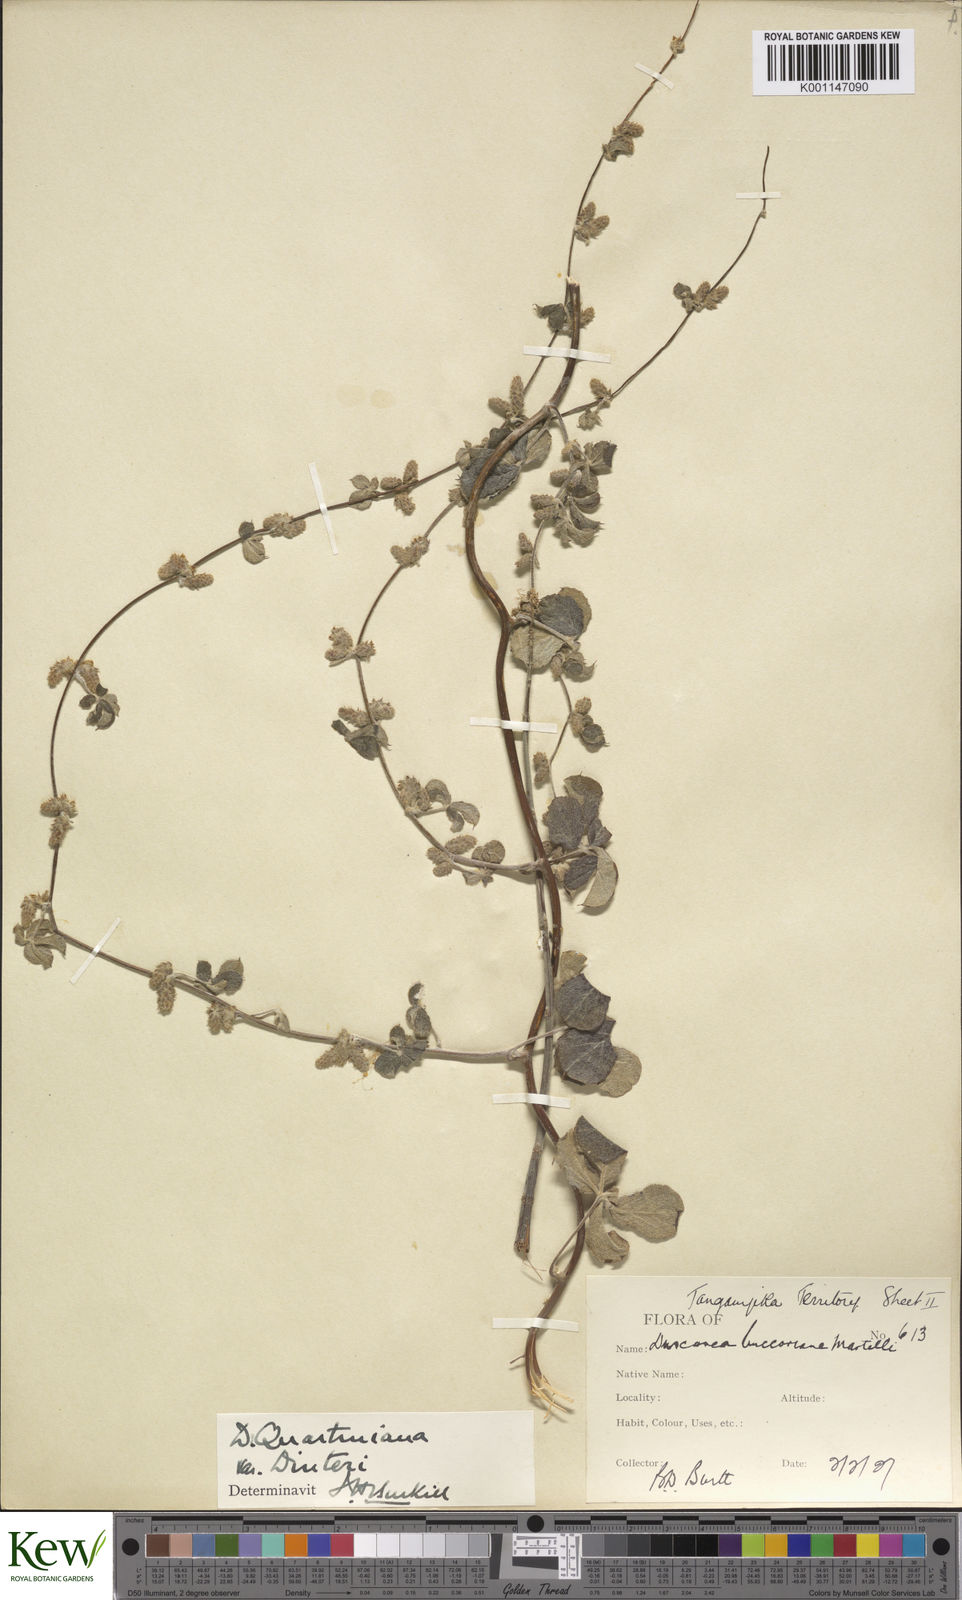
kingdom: Plantae
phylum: Tracheophyta
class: Liliopsida
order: Dioscoreales
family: Dioscoreaceae
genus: Dioscorea
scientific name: Dioscorea quartiniana
